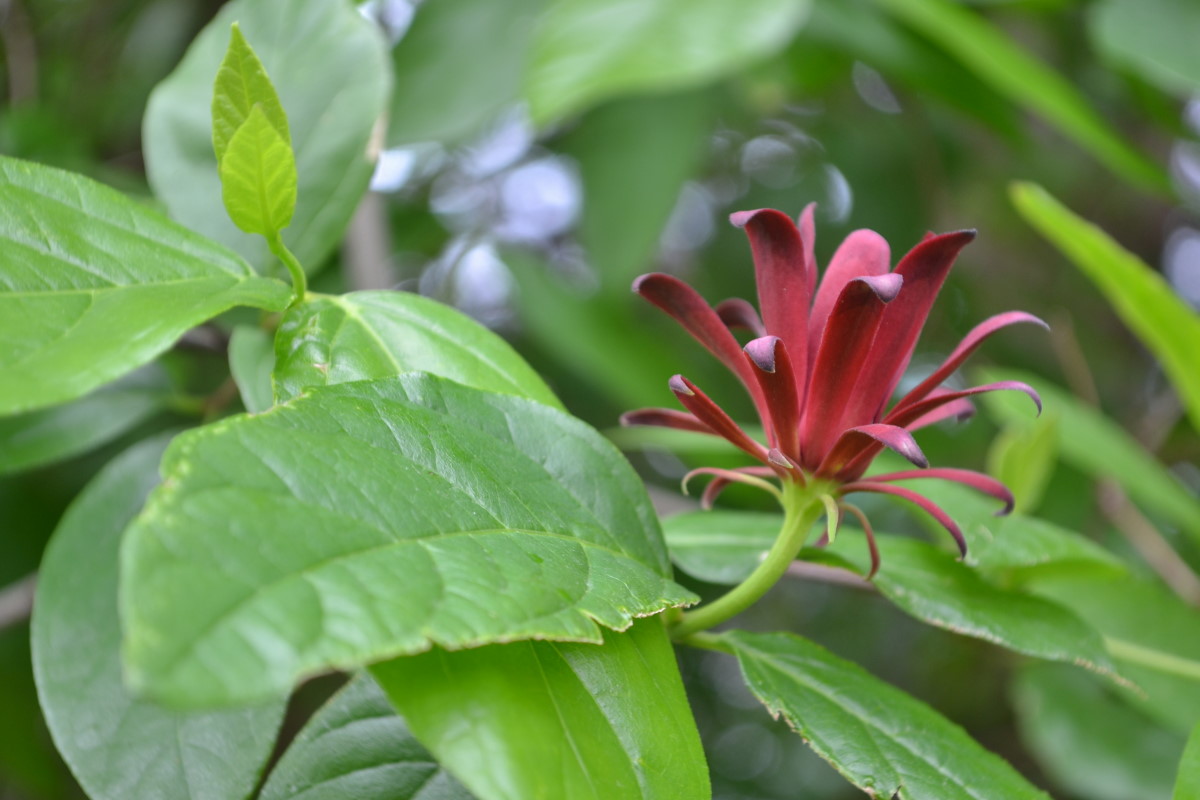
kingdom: Plantae
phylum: Tracheophyta
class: Magnoliopsida
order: Laurales
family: Calycanthaceae
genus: Calycanthus
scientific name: Calycanthus floridus
